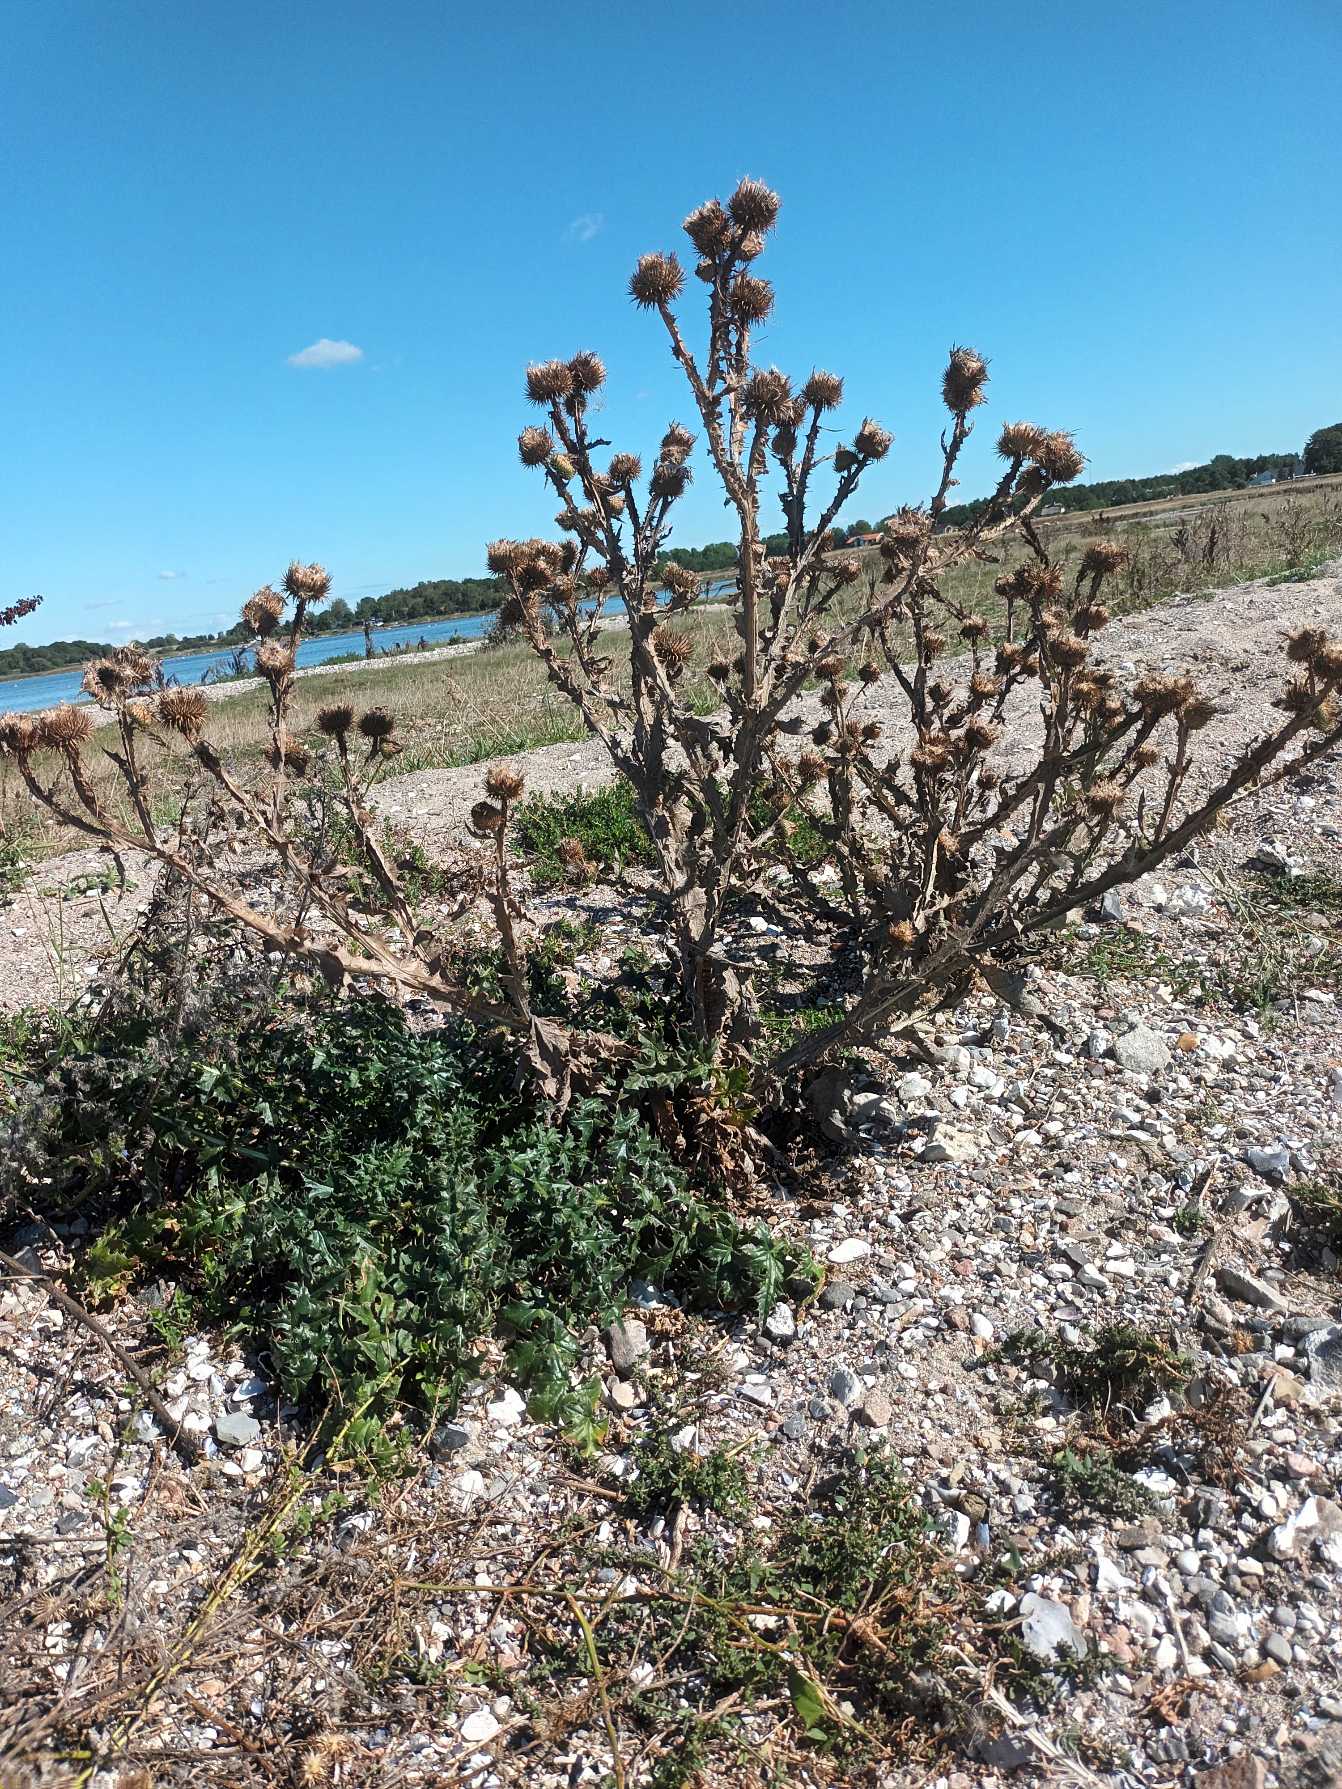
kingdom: Plantae
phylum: Tracheophyta
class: Magnoliopsida
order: Asterales
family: Asteraceae
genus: Onopordum
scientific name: Onopordum acanthium
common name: Æselfoder
